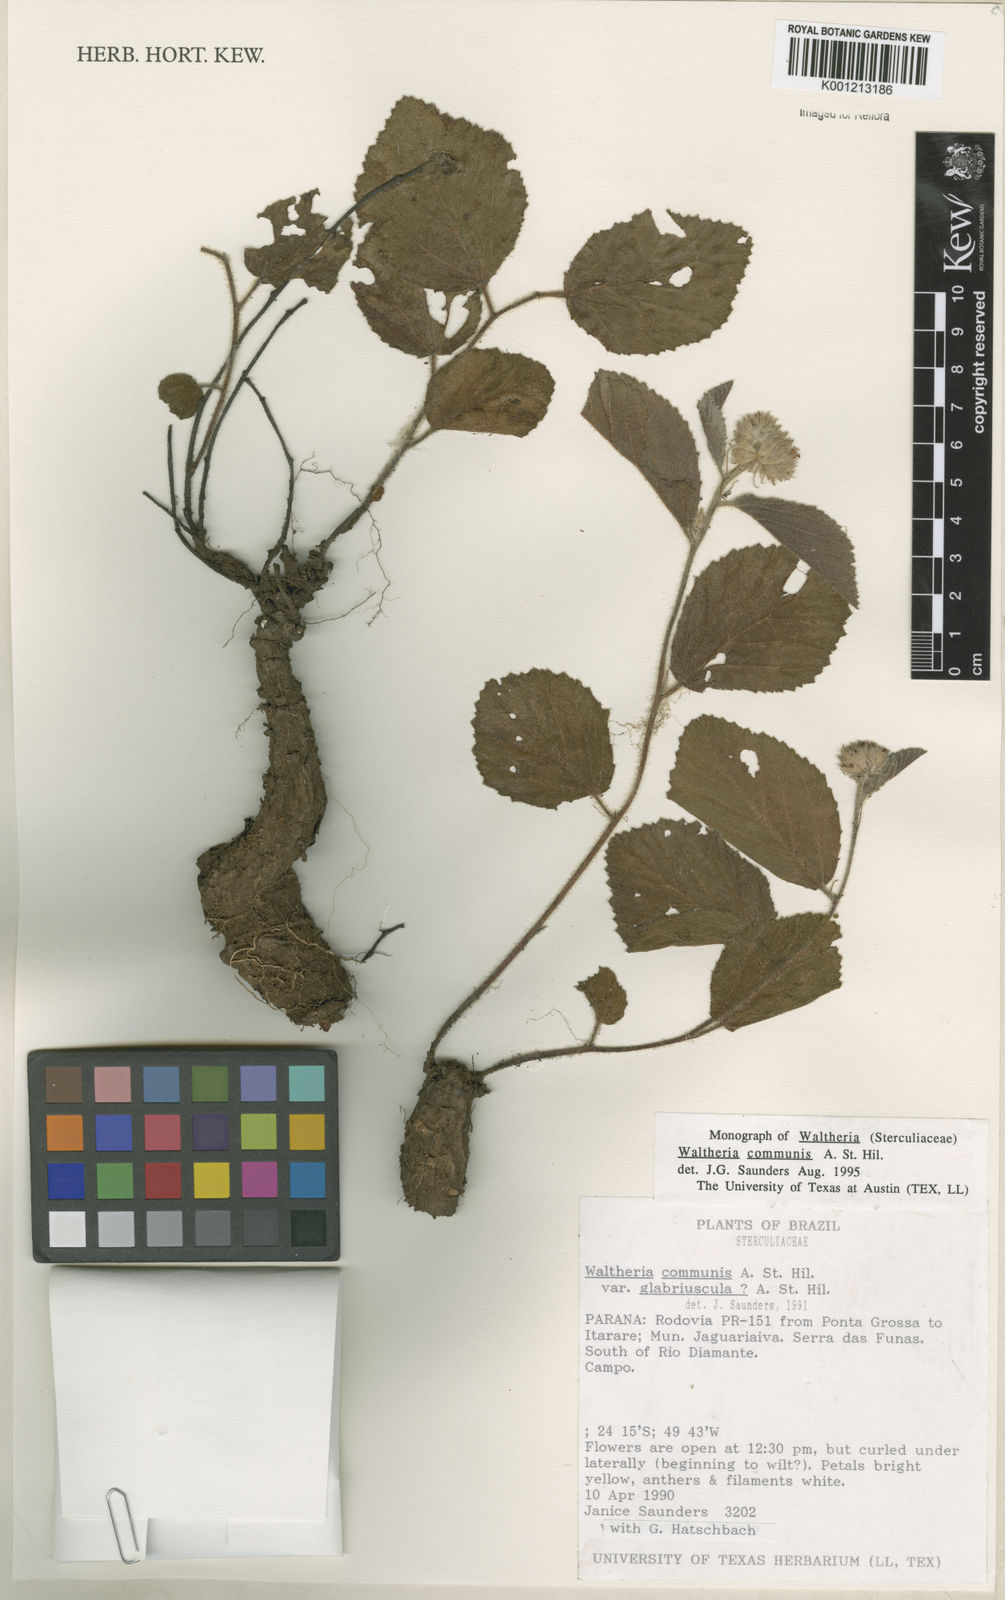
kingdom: Plantae
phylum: Tracheophyta
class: Magnoliopsida
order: Malvales
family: Malvaceae
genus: Waltheria
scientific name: Waltheria communis
